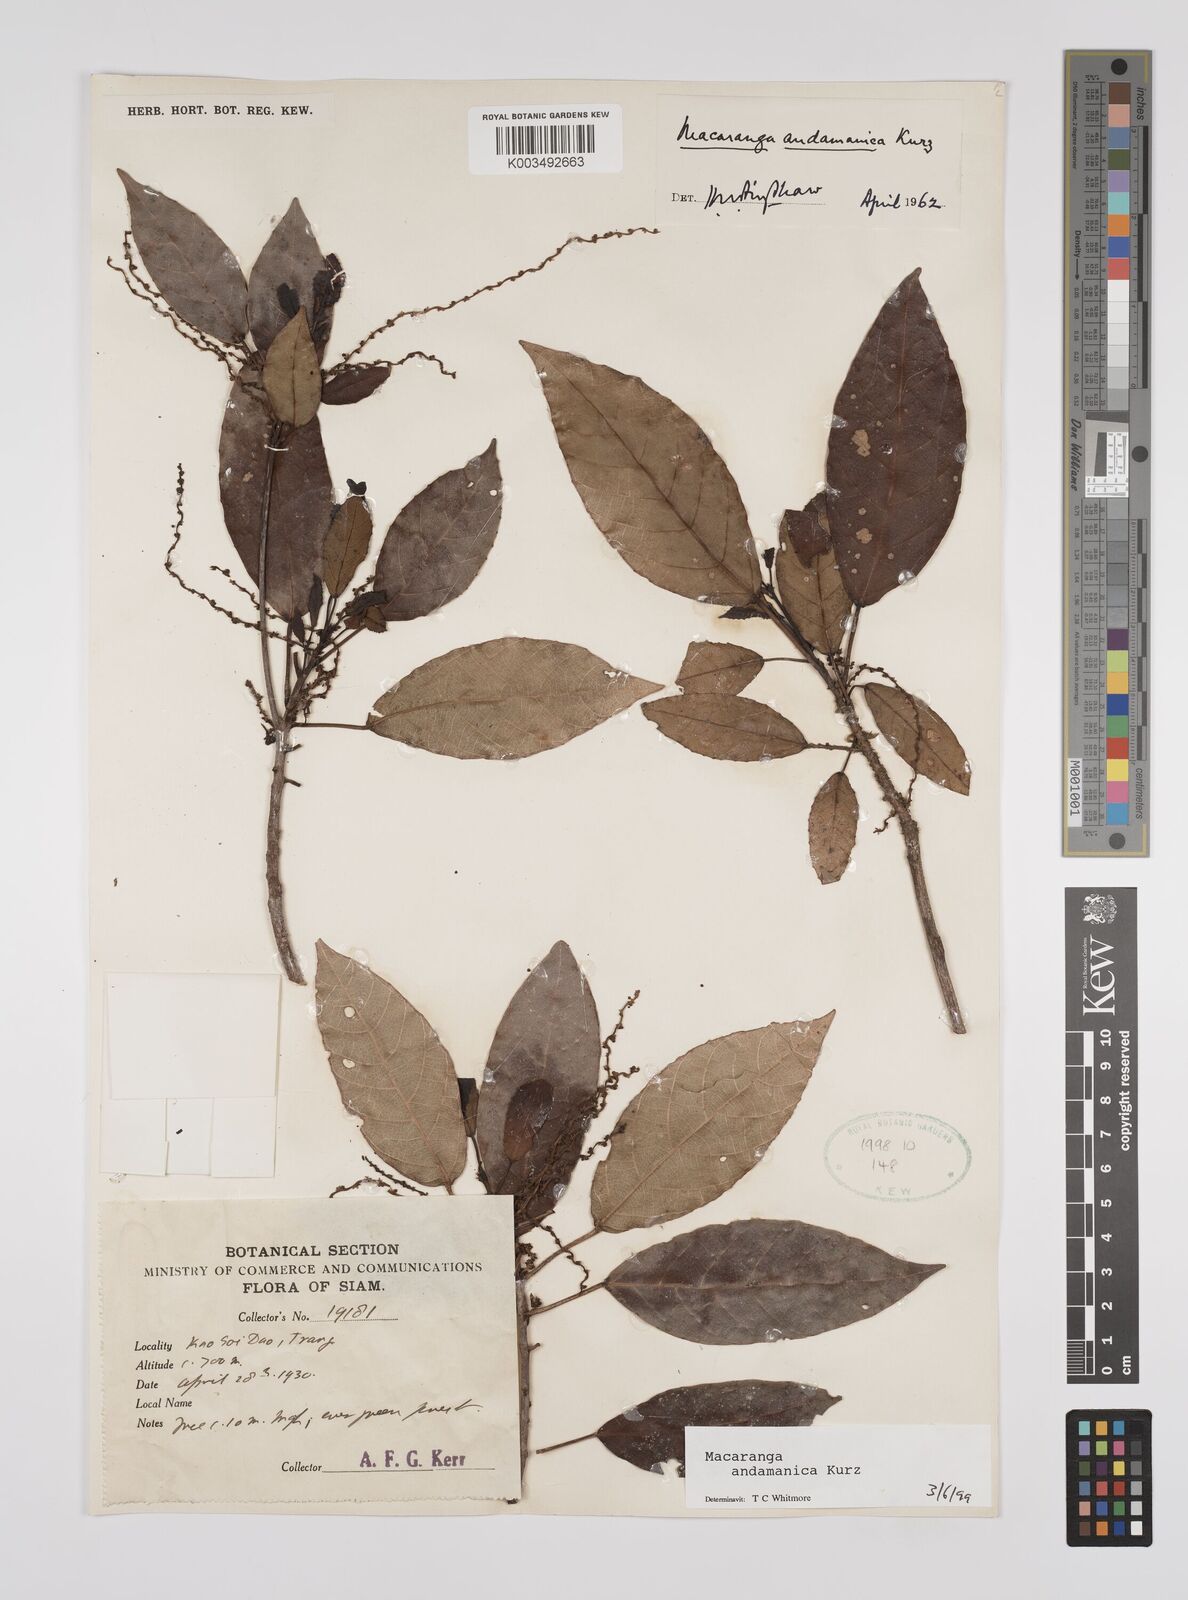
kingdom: Plantae
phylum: Tracheophyta
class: Magnoliopsida
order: Malpighiales
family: Euphorbiaceae
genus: Macaranga
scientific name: Macaranga andamanica
